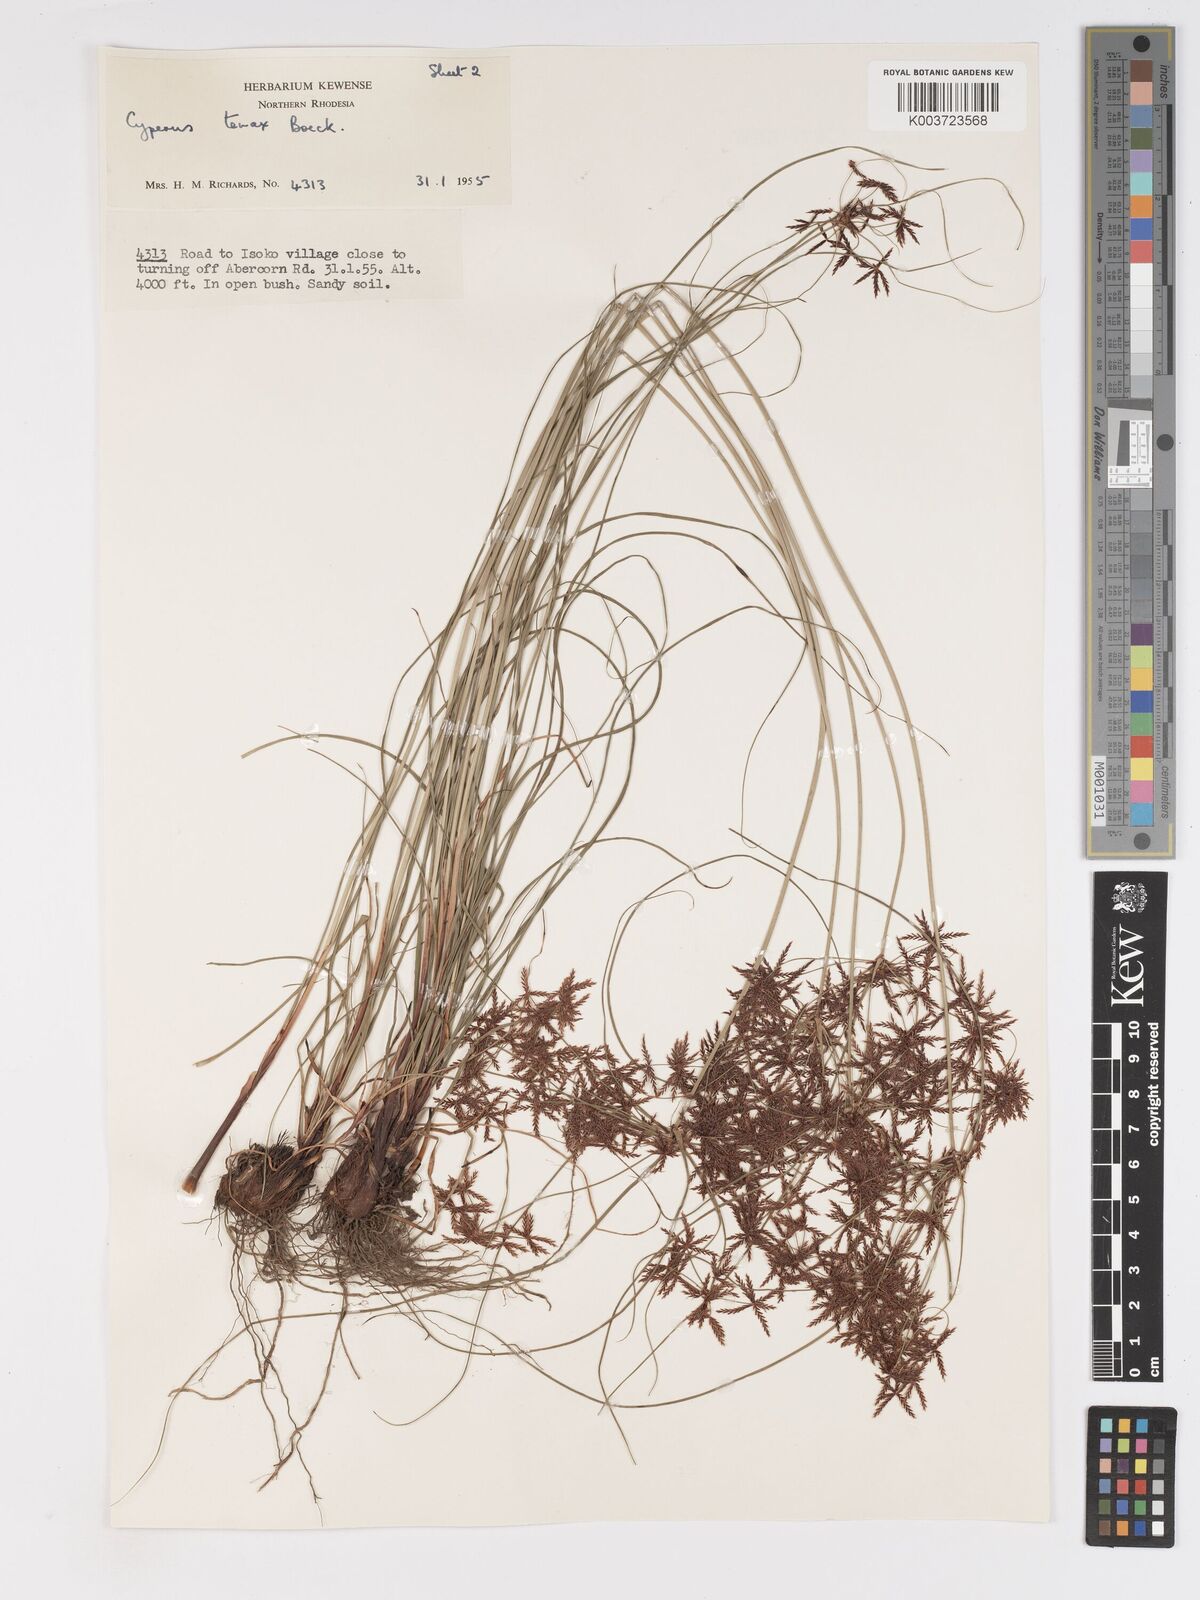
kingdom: Plantae
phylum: Tracheophyta
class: Liliopsida
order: Poales
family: Cyperaceae
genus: Cyperus
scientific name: Cyperus tenax
